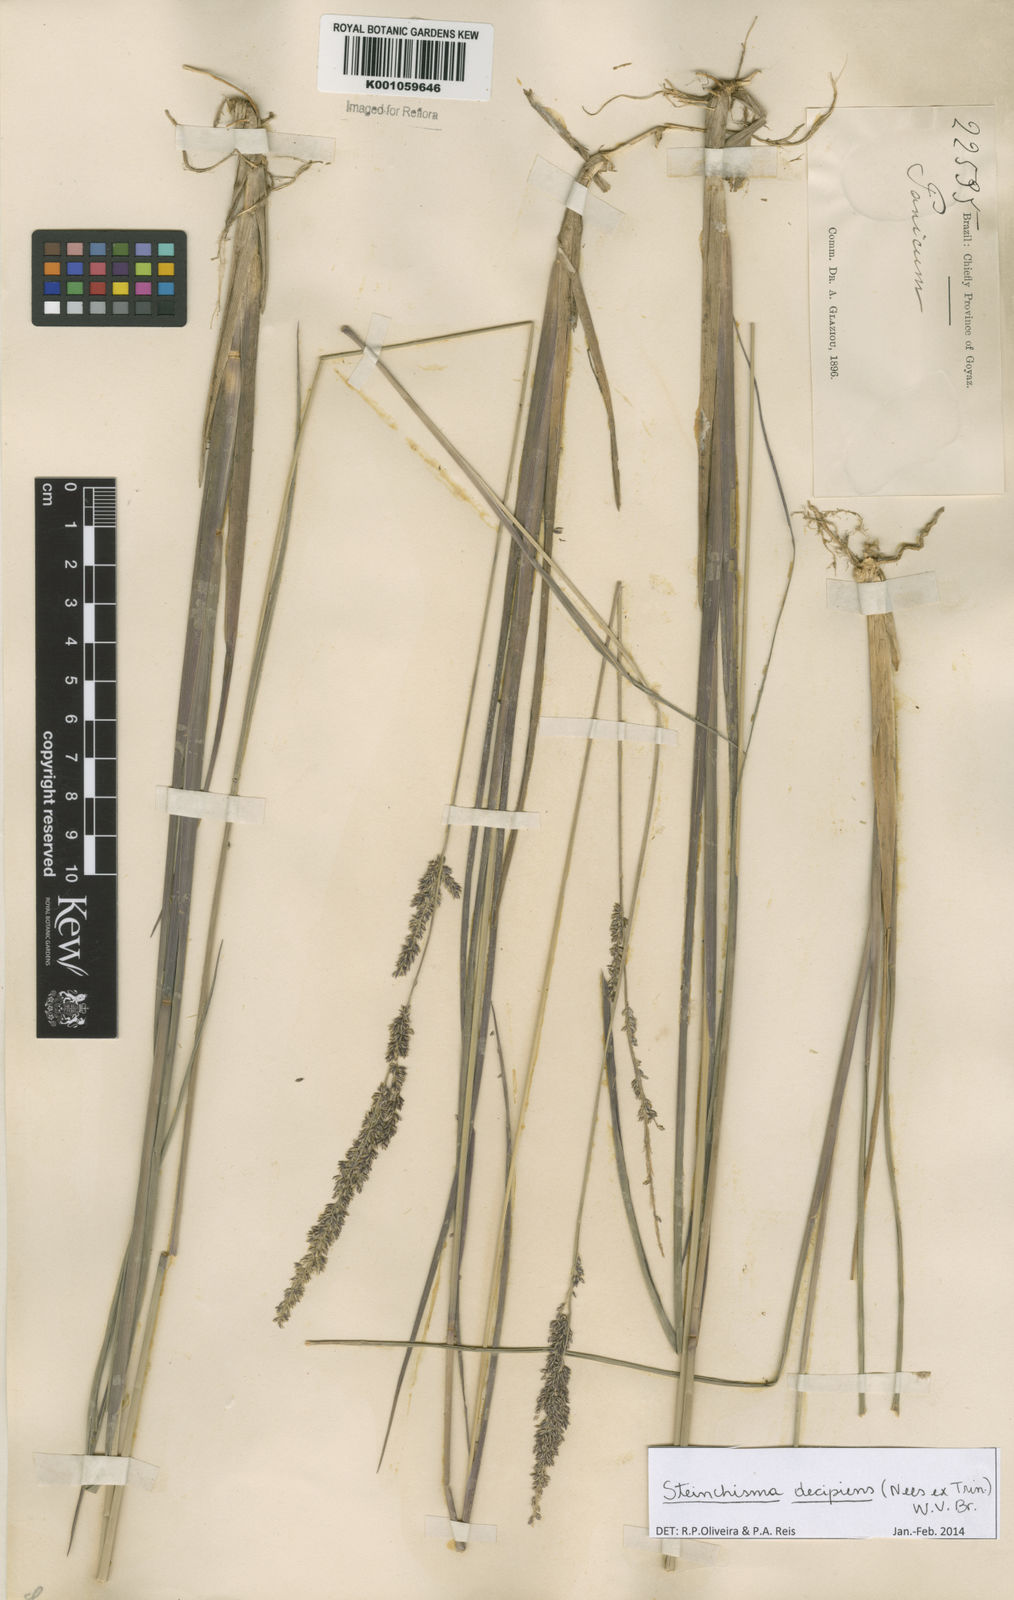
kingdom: Plantae
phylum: Tracheophyta
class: Liliopsida
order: Poales
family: Poaceae
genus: Steinchisma
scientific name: Steinchisma decipiens
